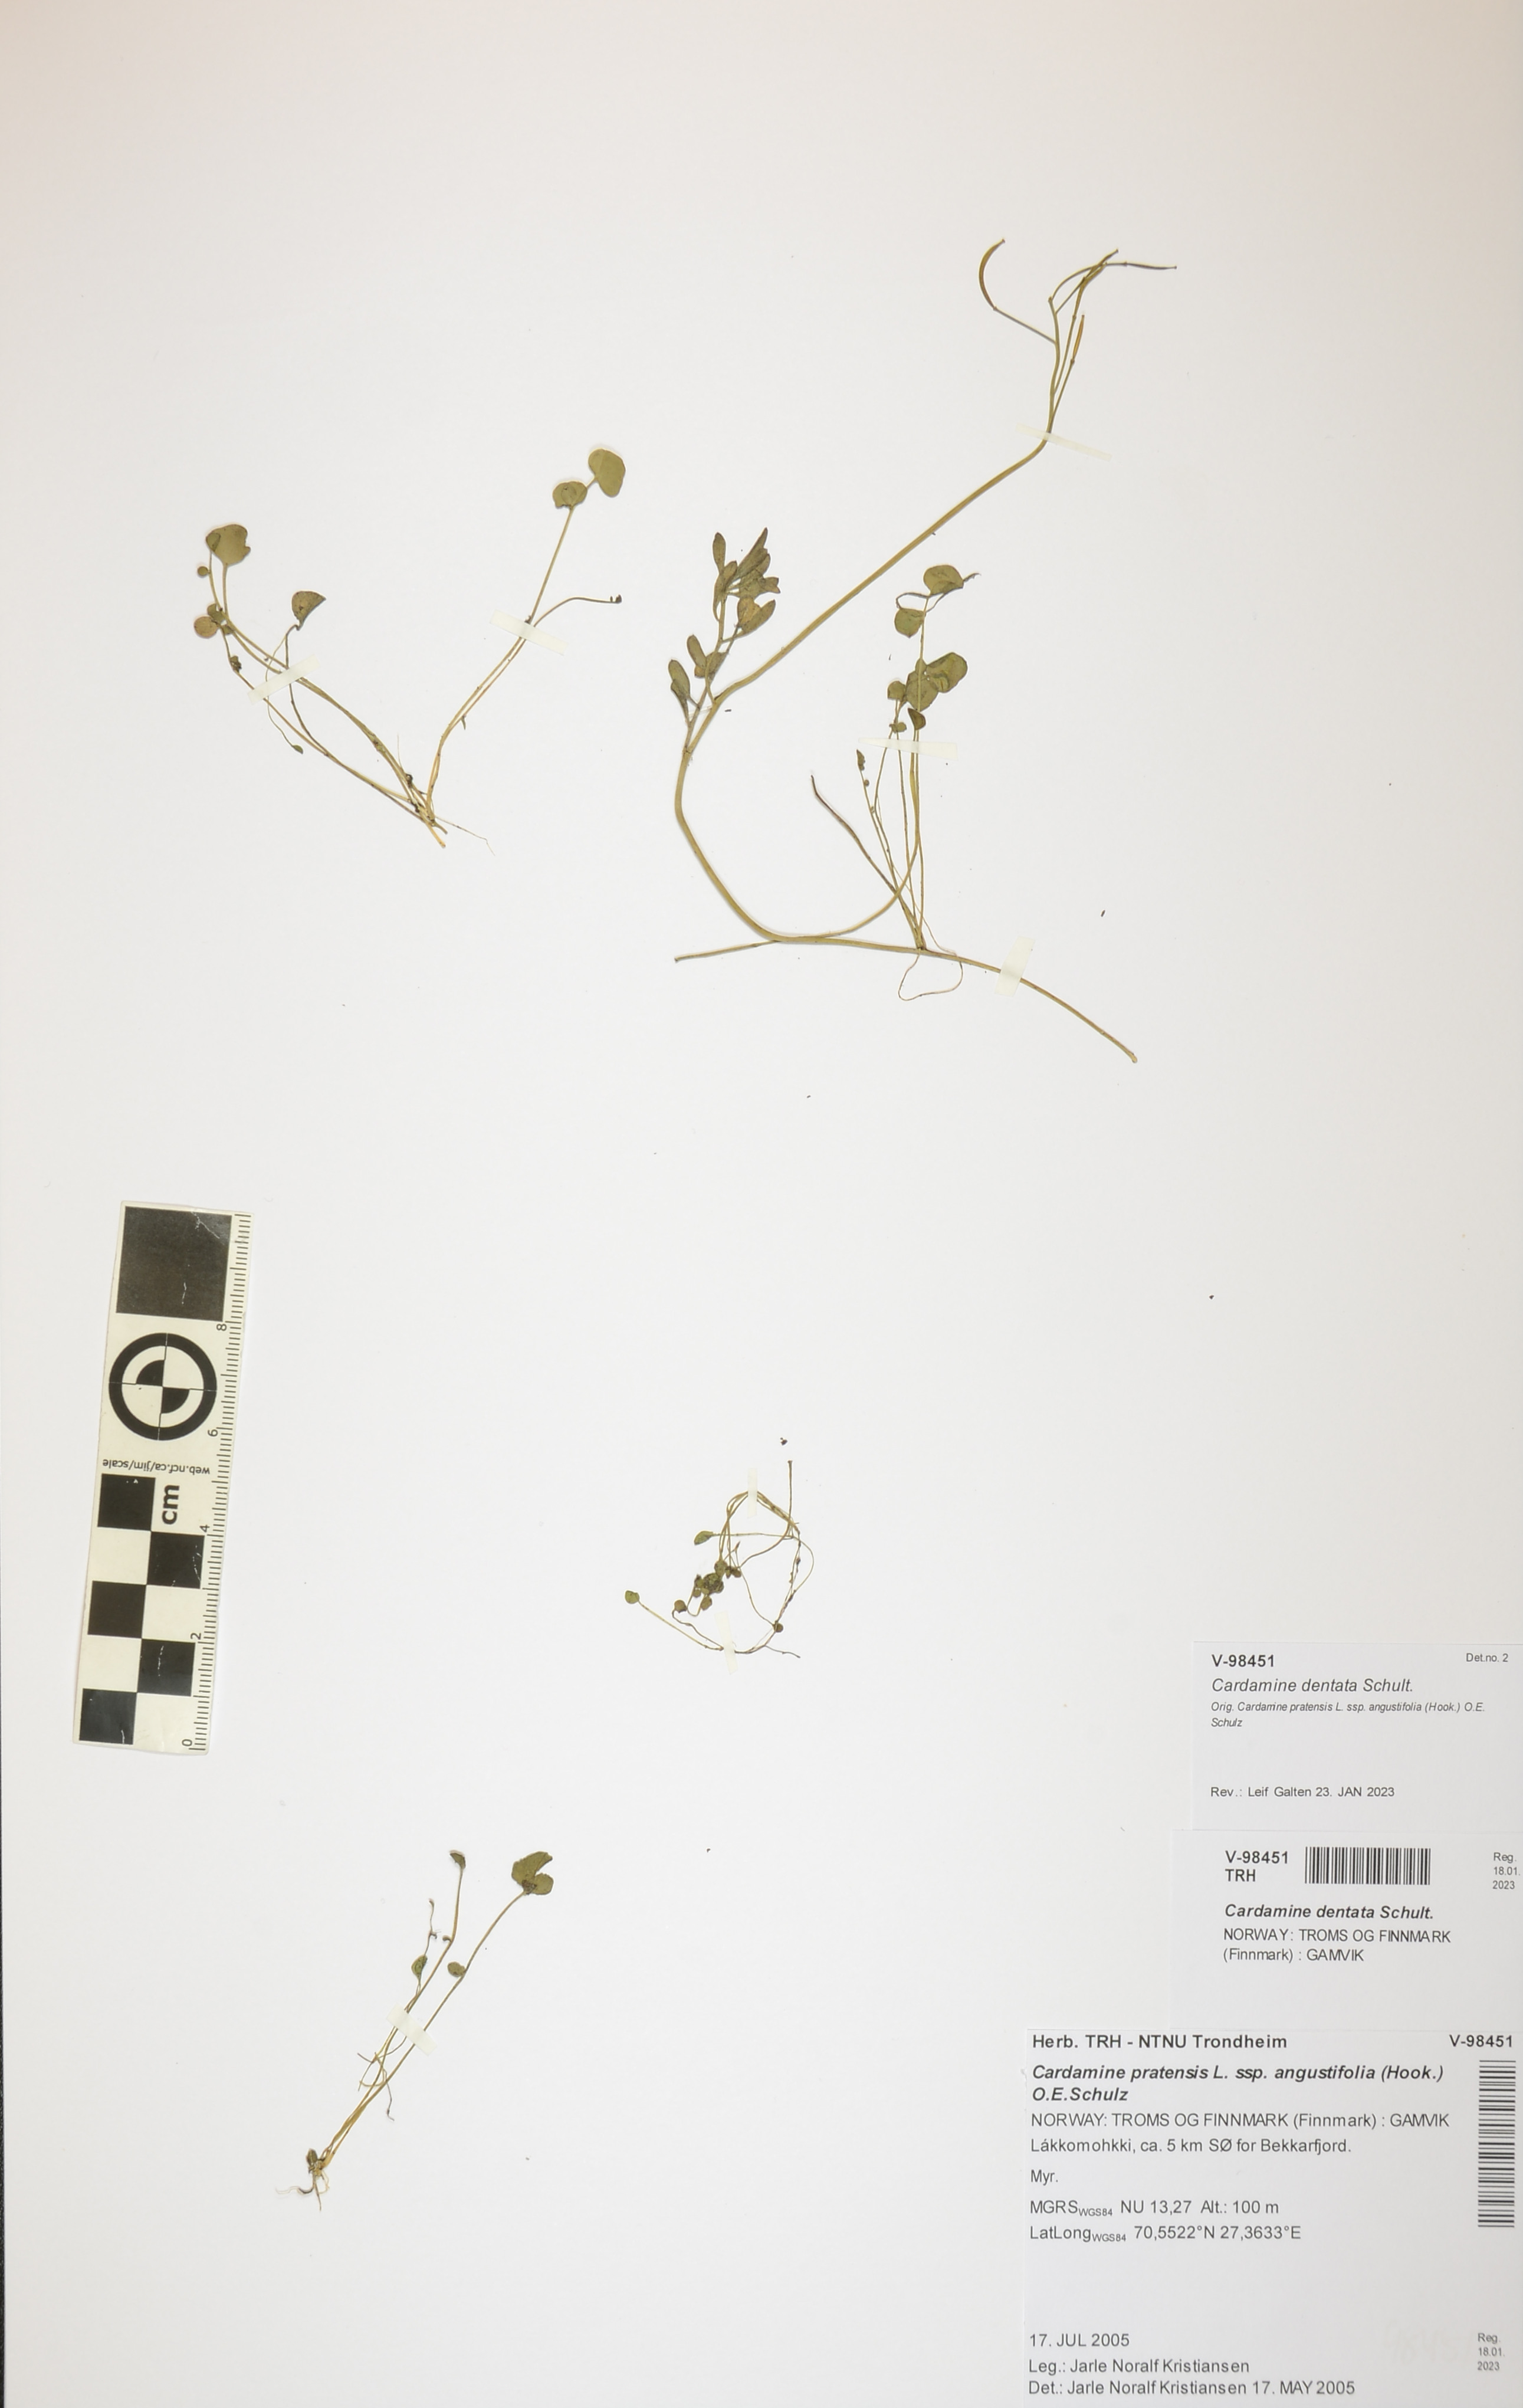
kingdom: Plantae
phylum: Tracheophyta
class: Magnoliopsida
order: Brassicales
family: Brassicaceae
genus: Cardamine
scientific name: Cardamine dentata
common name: Toothed bittercress
